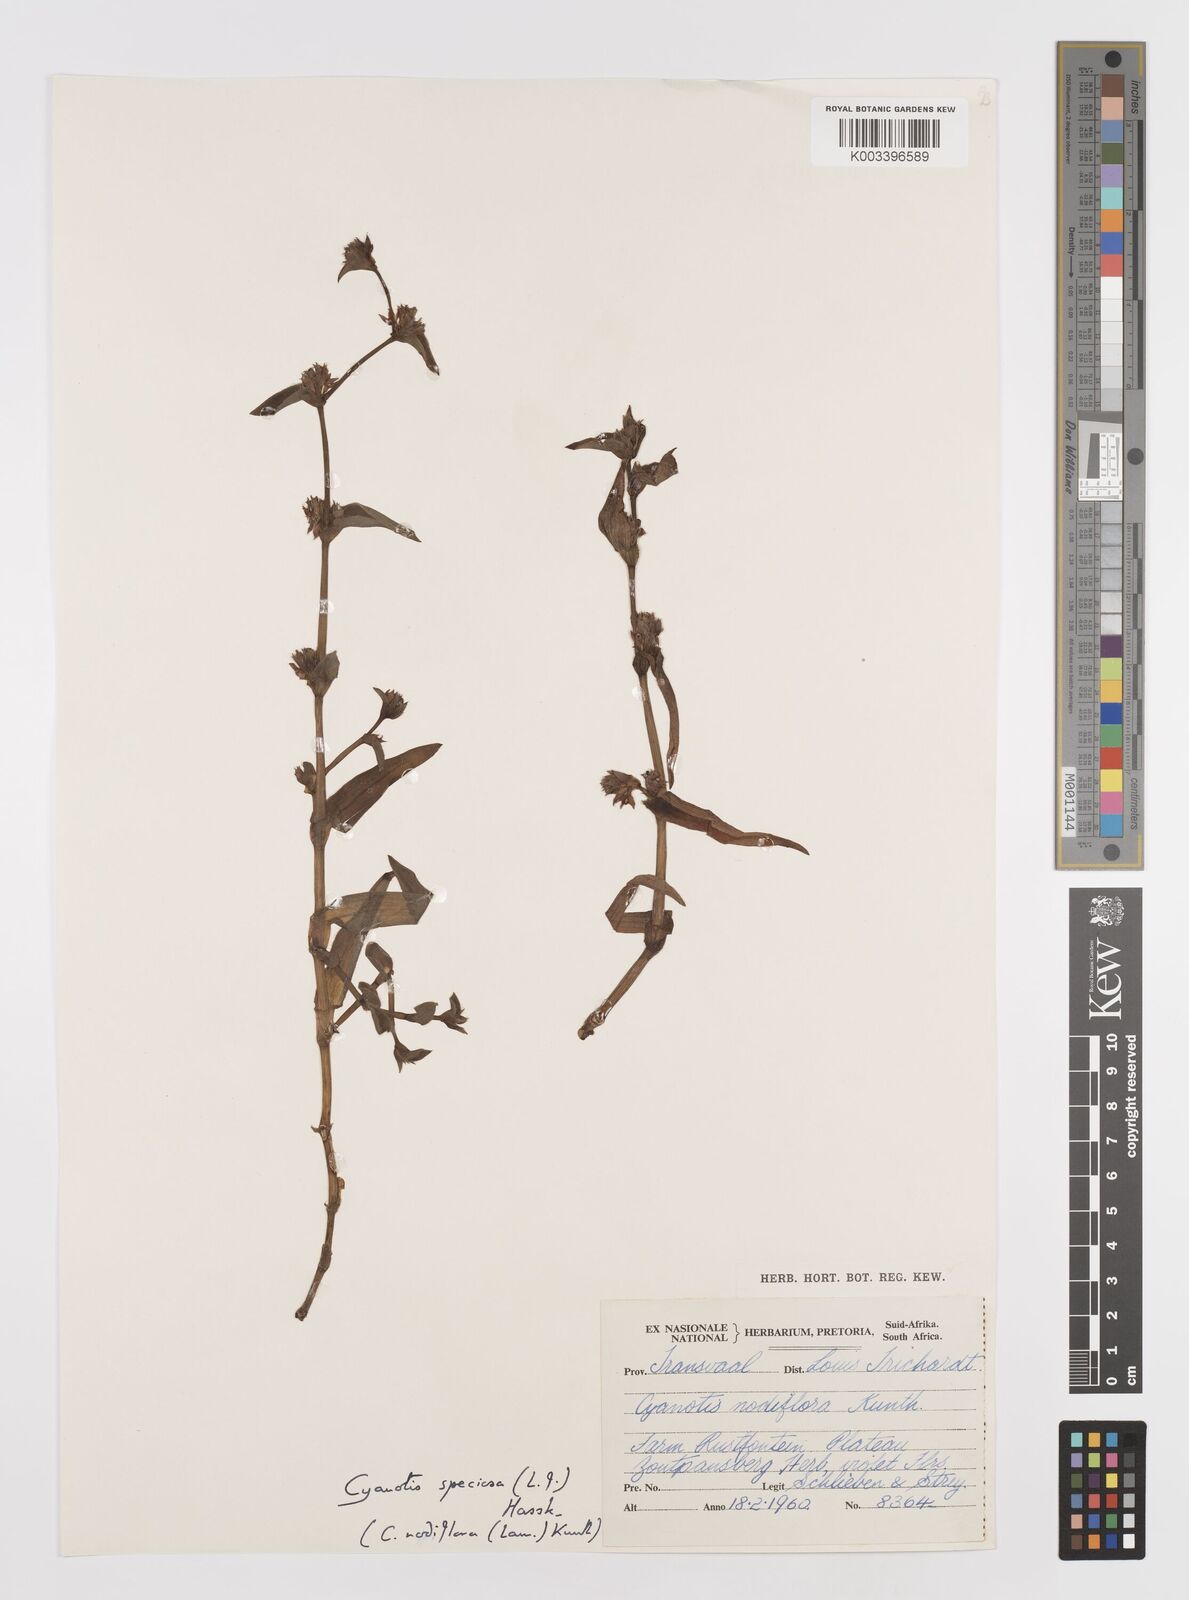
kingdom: Plantae
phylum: Tracheophyta
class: Liliopsida
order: Commelinales
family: Commelinaceae
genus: Cyanotis
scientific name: Cyanotis speciosa
